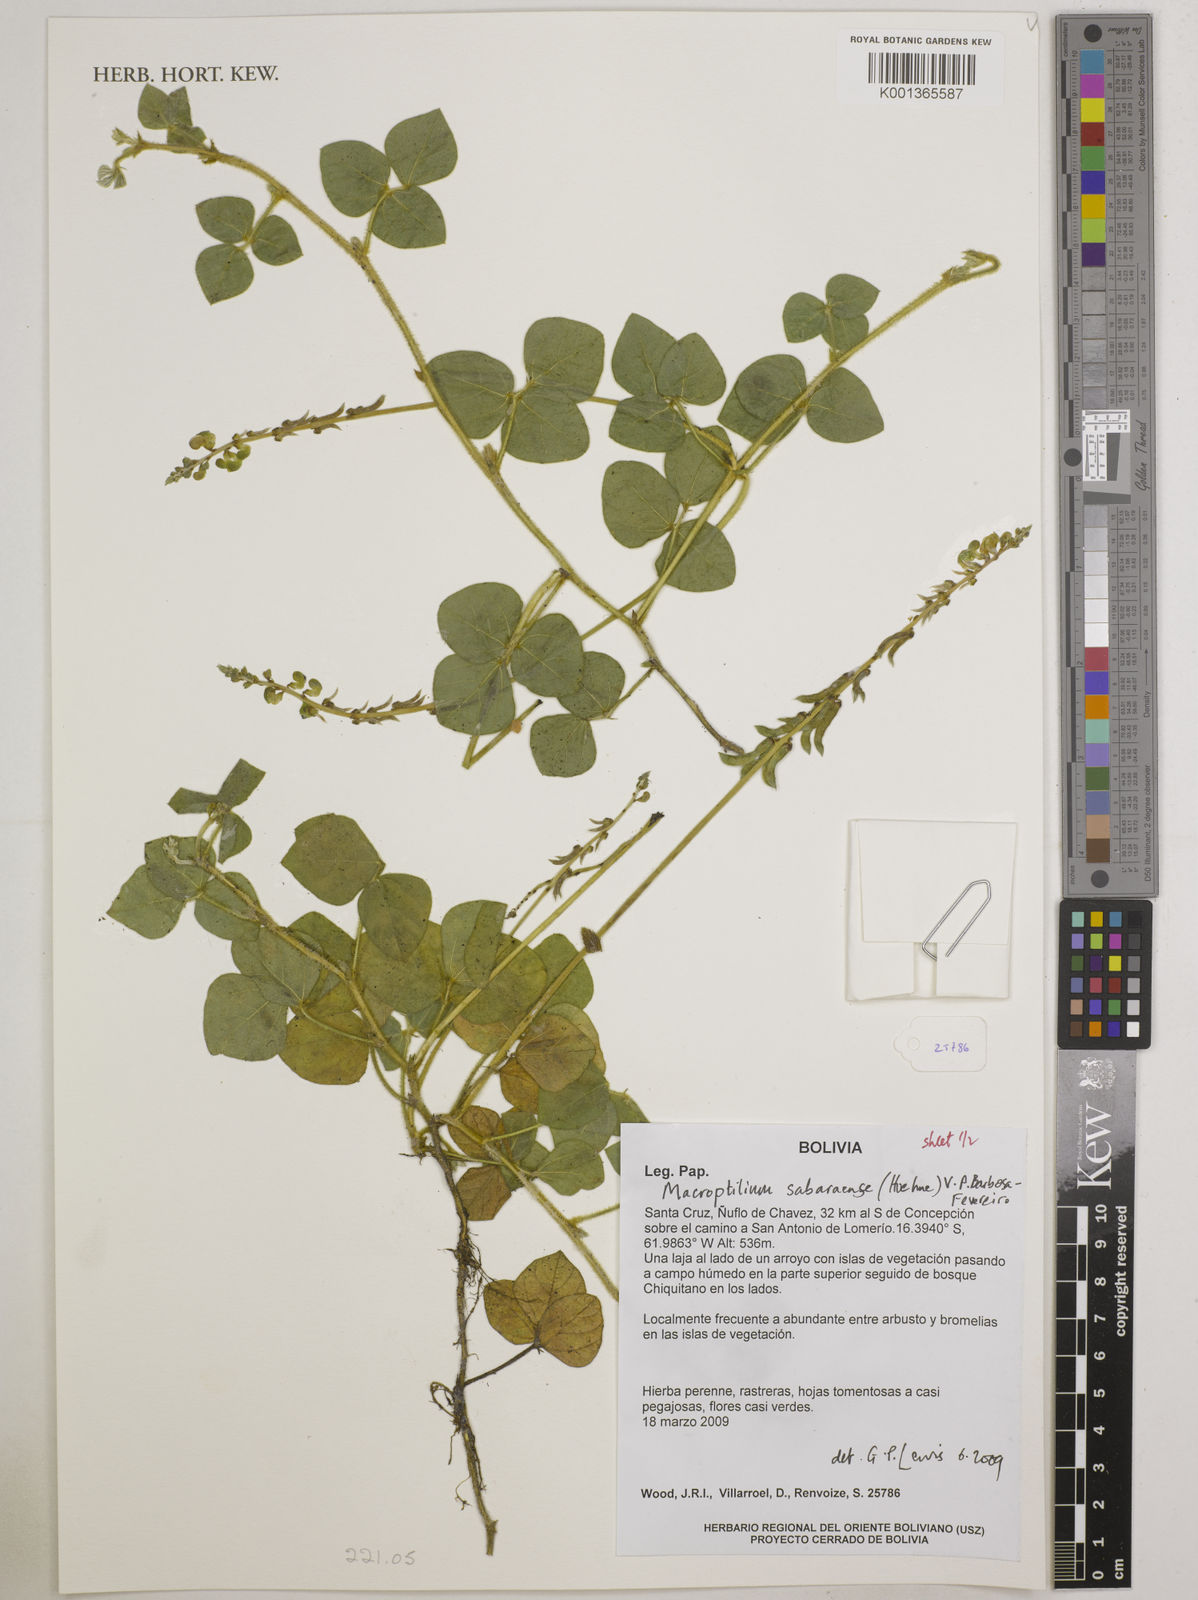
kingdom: Plantae
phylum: Tracheophyta
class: Magnoliopsida
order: Fabales
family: Fabaceae
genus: Macroptilium
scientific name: Macroptilium sabaraense
